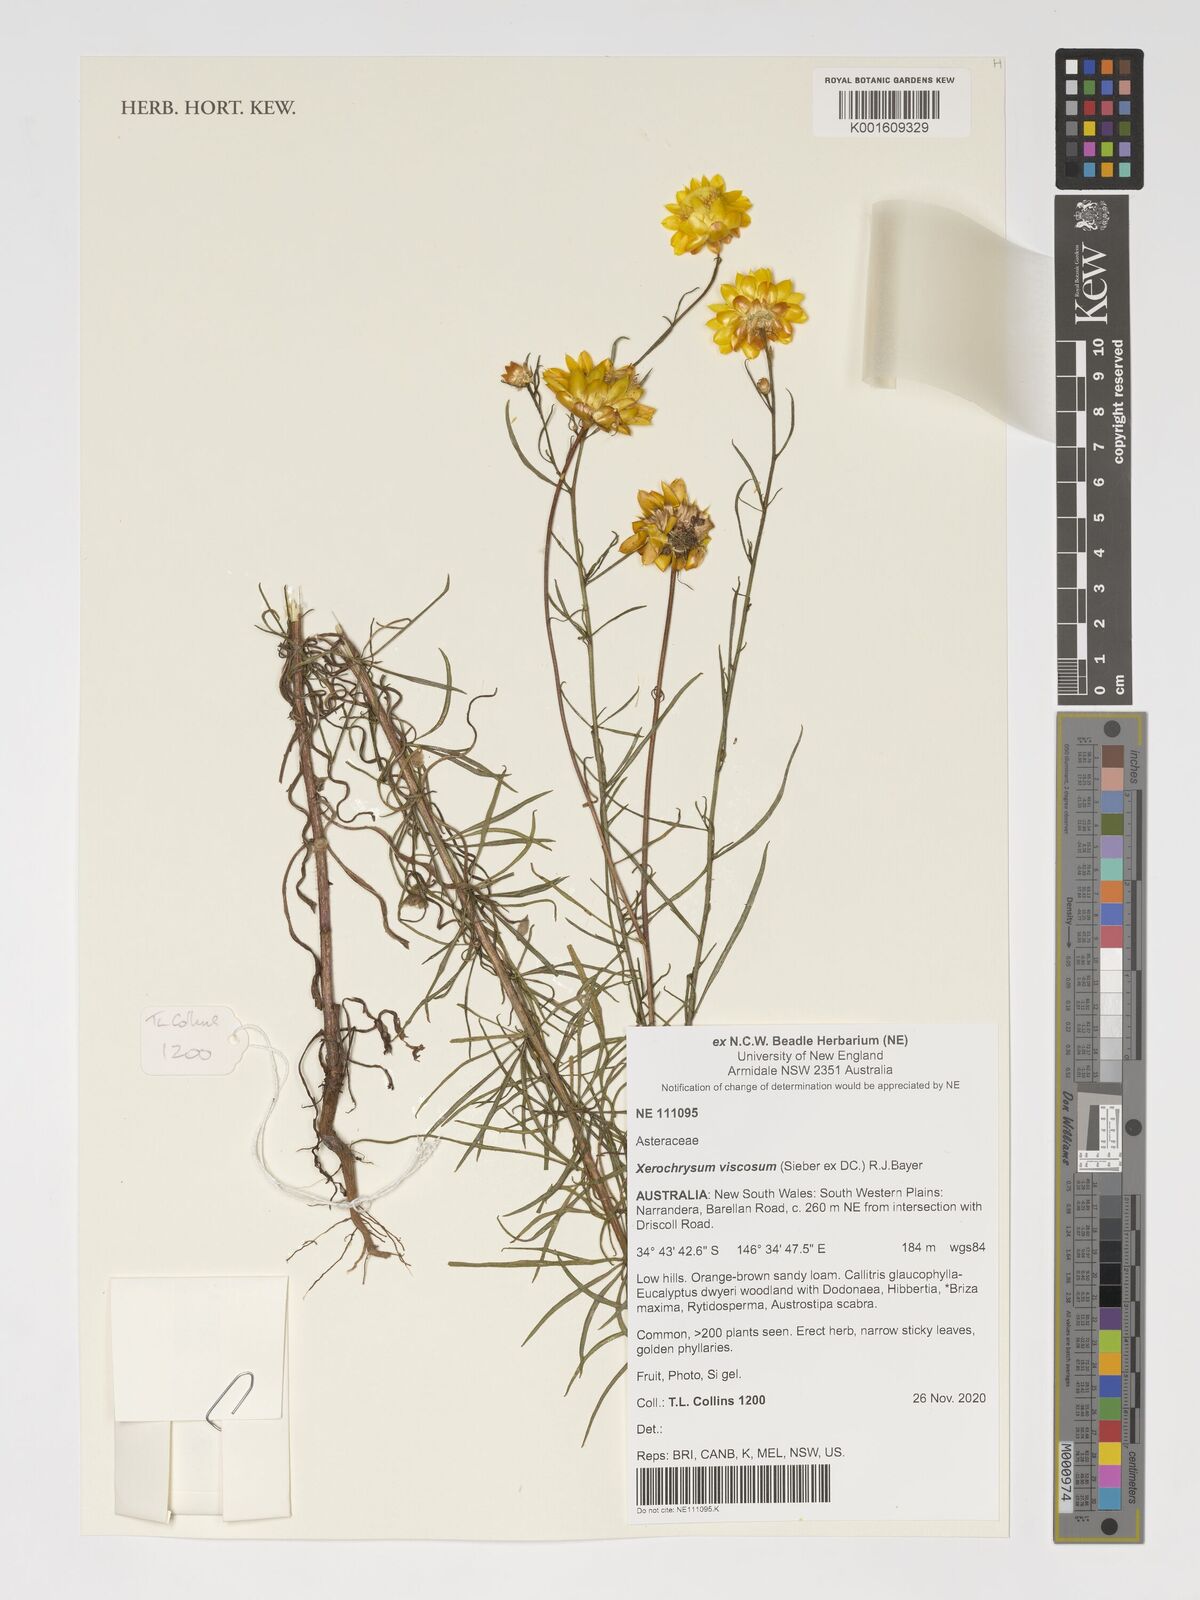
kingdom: Plantae
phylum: Tracheophyta
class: Magnoliopsida
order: Asterales
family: Asteraceae
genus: Xerochrysum
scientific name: Xerochrysum viscosum
